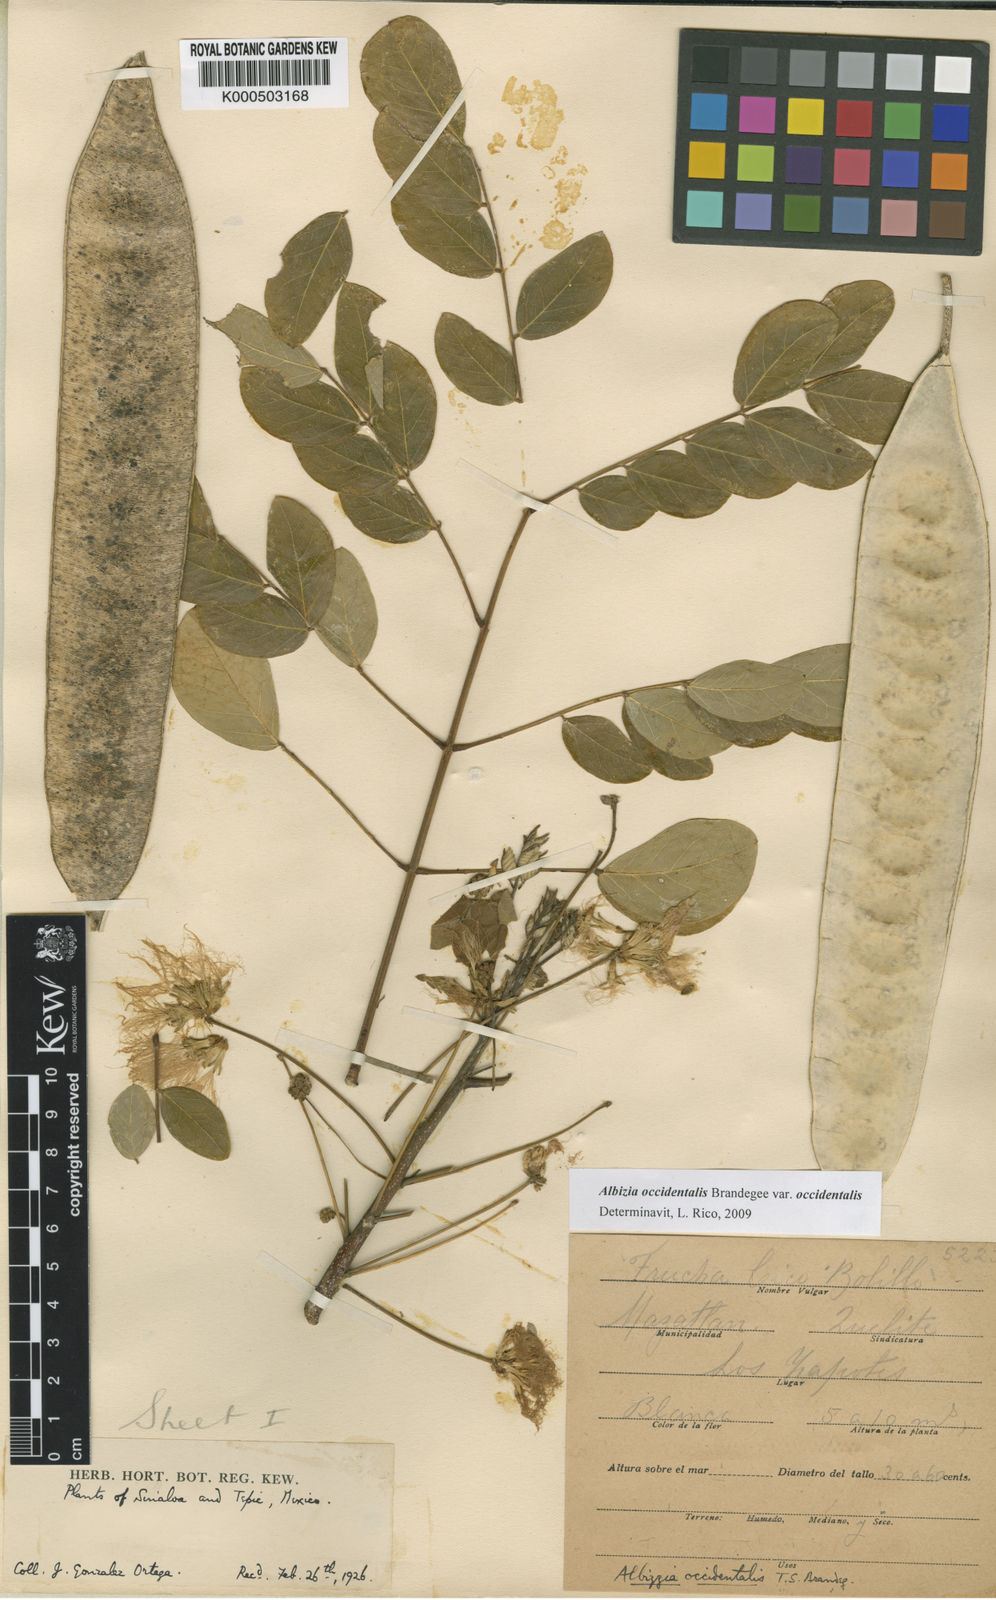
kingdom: Plantae
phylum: Tracheophyta
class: Magnoliopsida
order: Fabales
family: Fabaceae
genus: Albizia
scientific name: Albizia occidentalis
